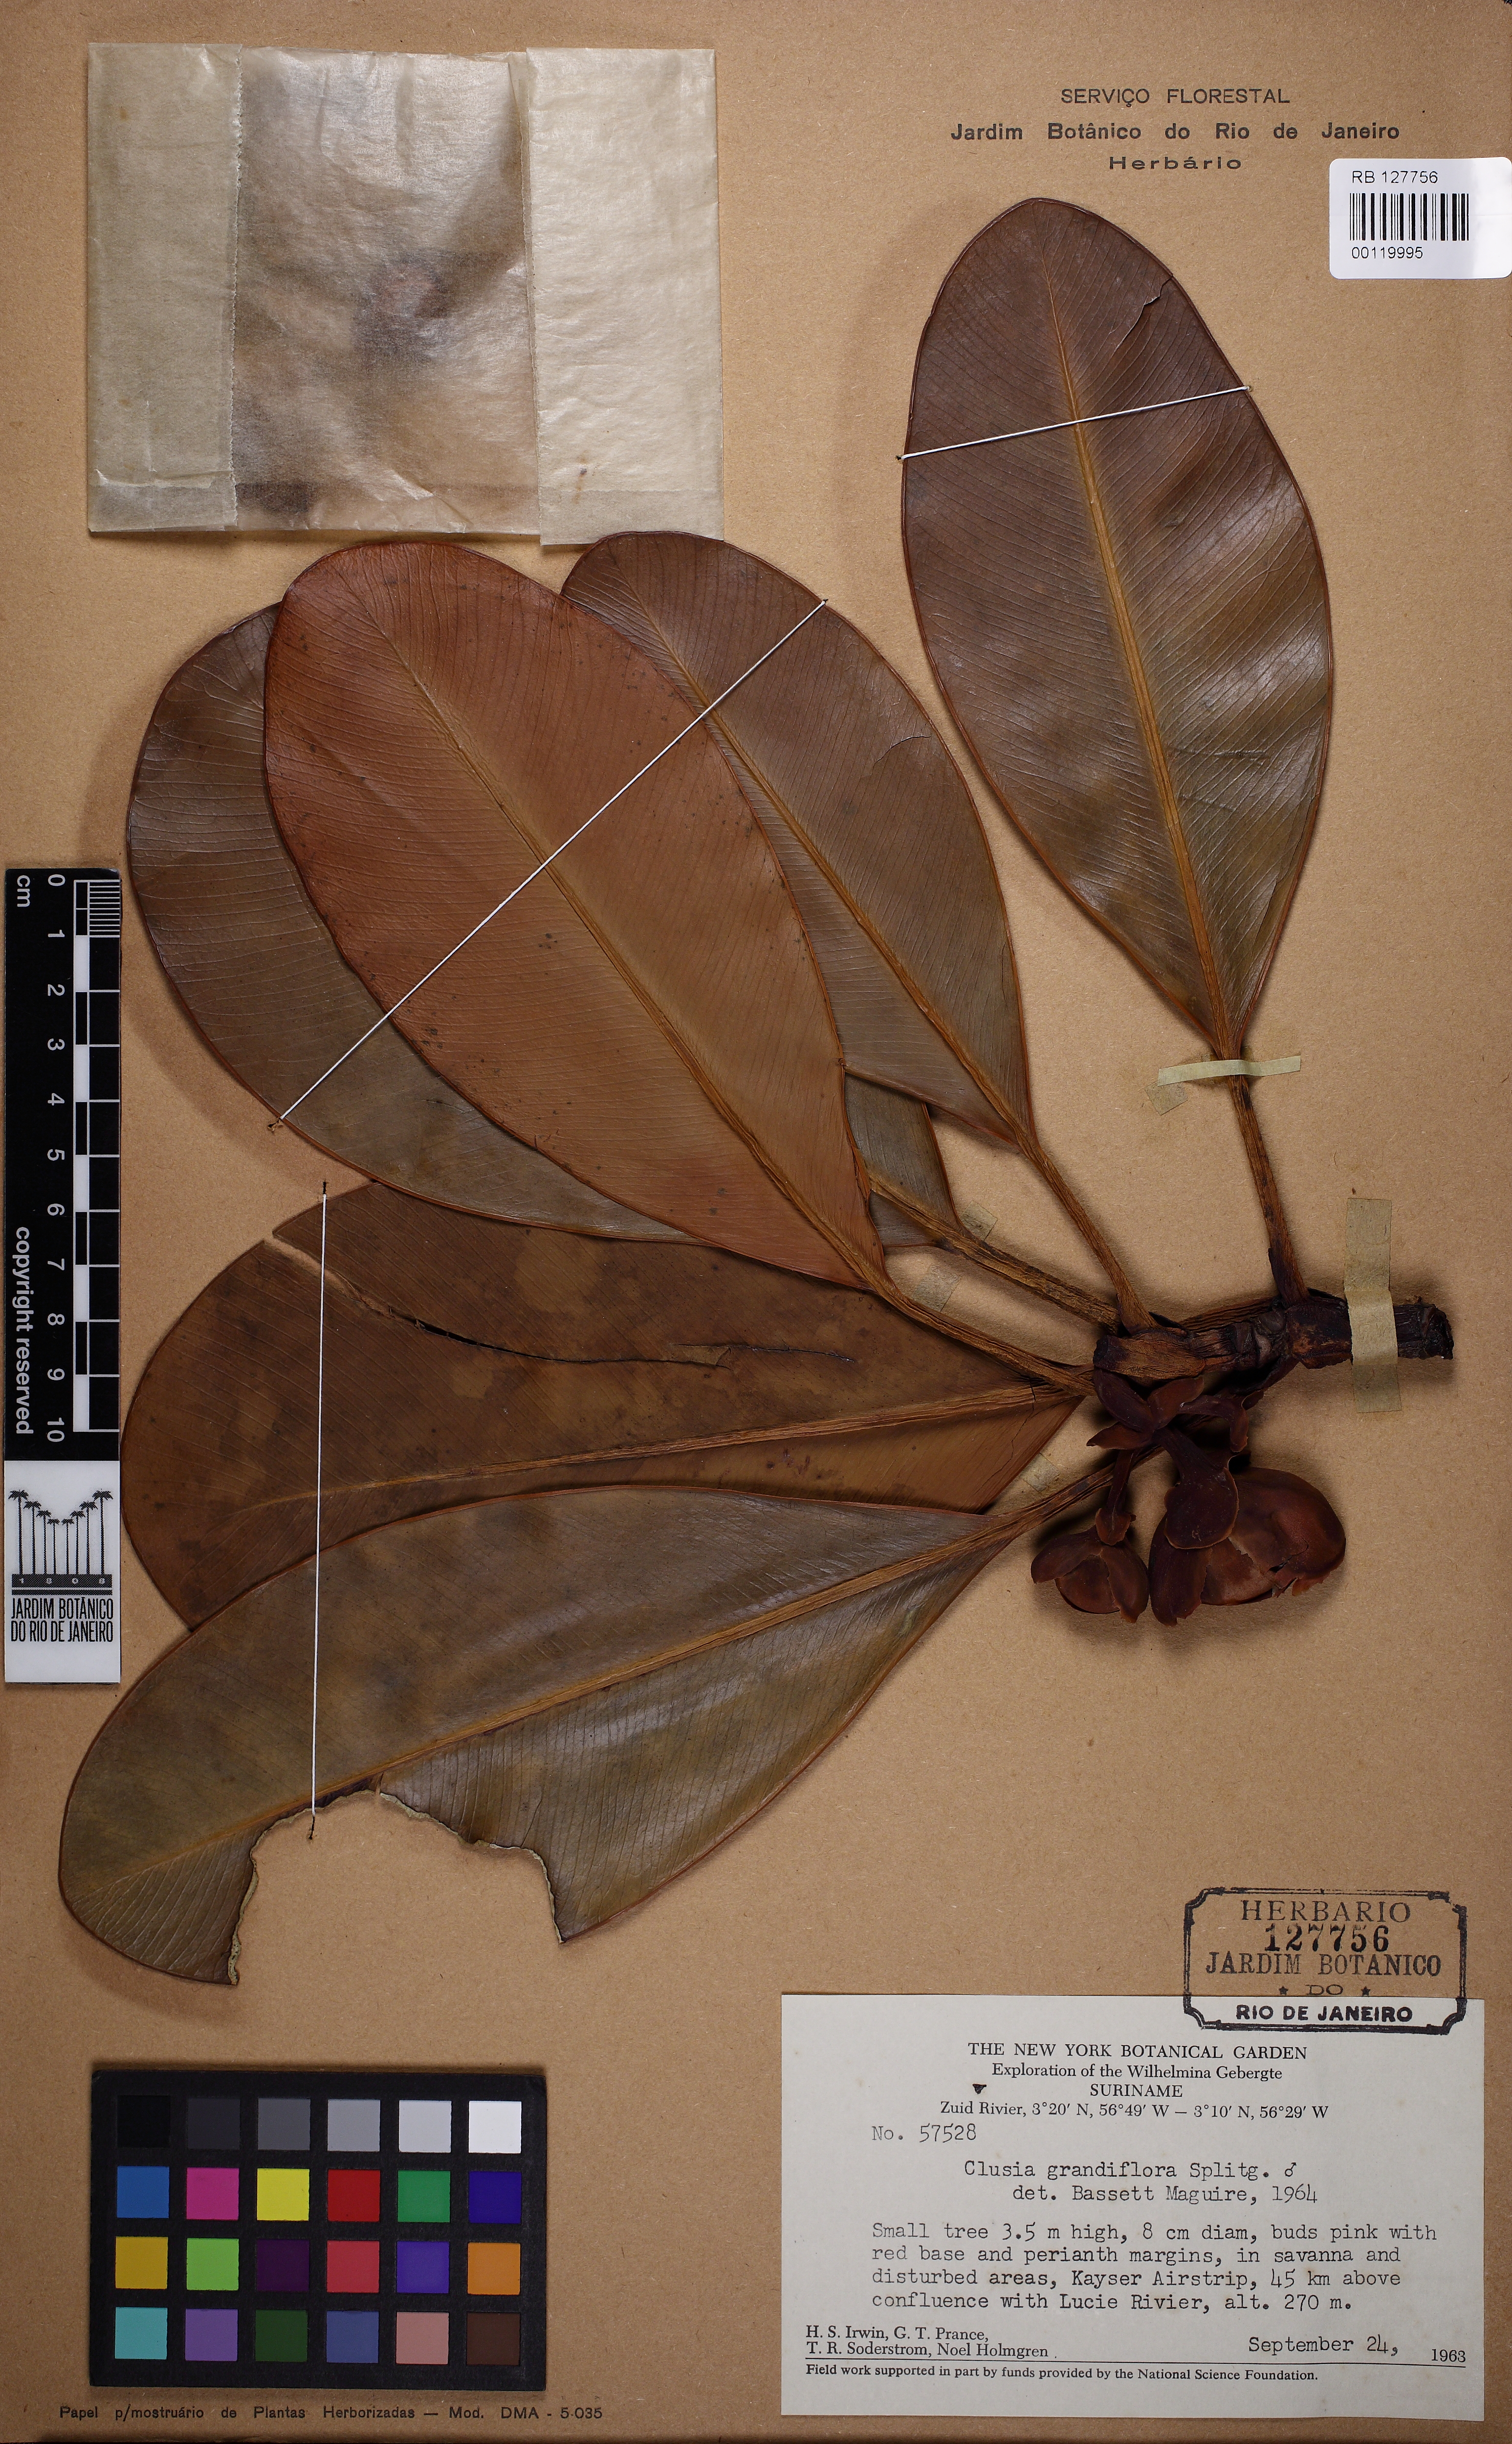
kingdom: Plantae
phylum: Tracheophyta
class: Magnoliopsida
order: Malpighiales
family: Clusiaceae
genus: Clusia
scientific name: Clusia grandiflora
